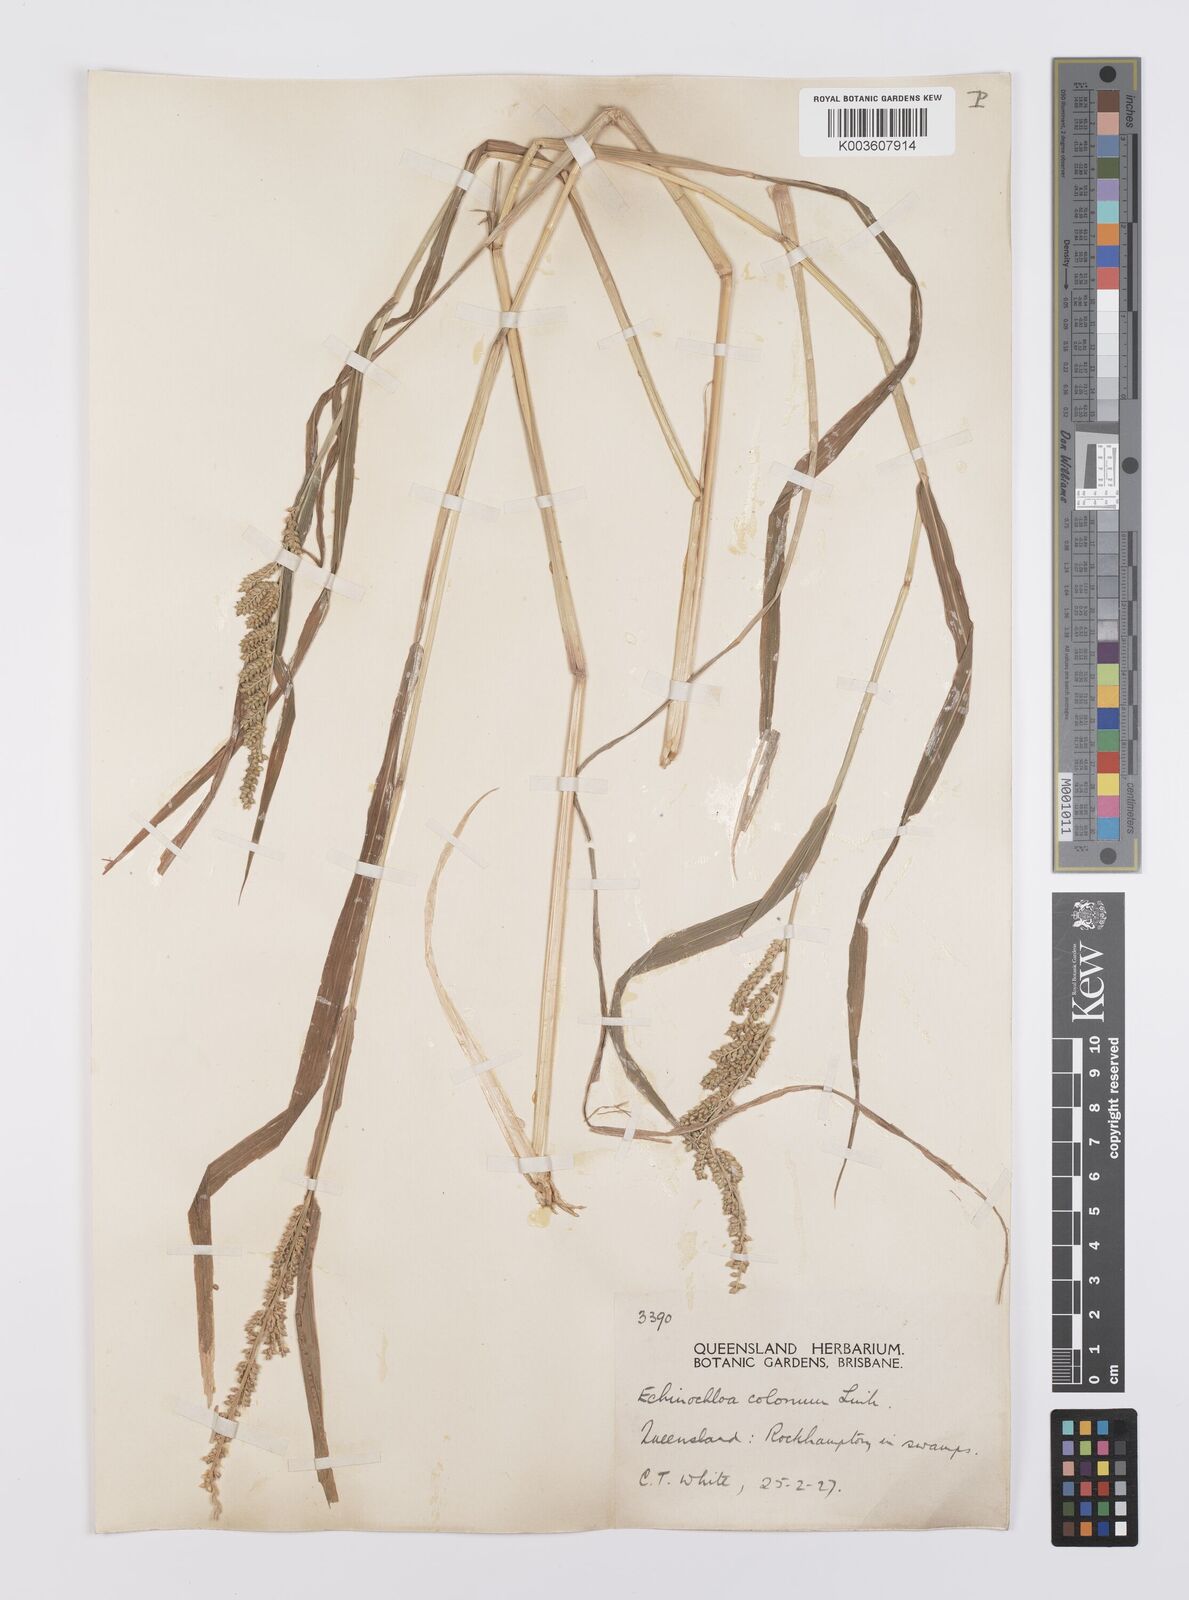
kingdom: Plantae
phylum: Tracheophyta
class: Liliopsida
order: Poales
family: Poaceae
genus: Echinochloa
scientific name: Echinochloa colonum
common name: Jungle rice
